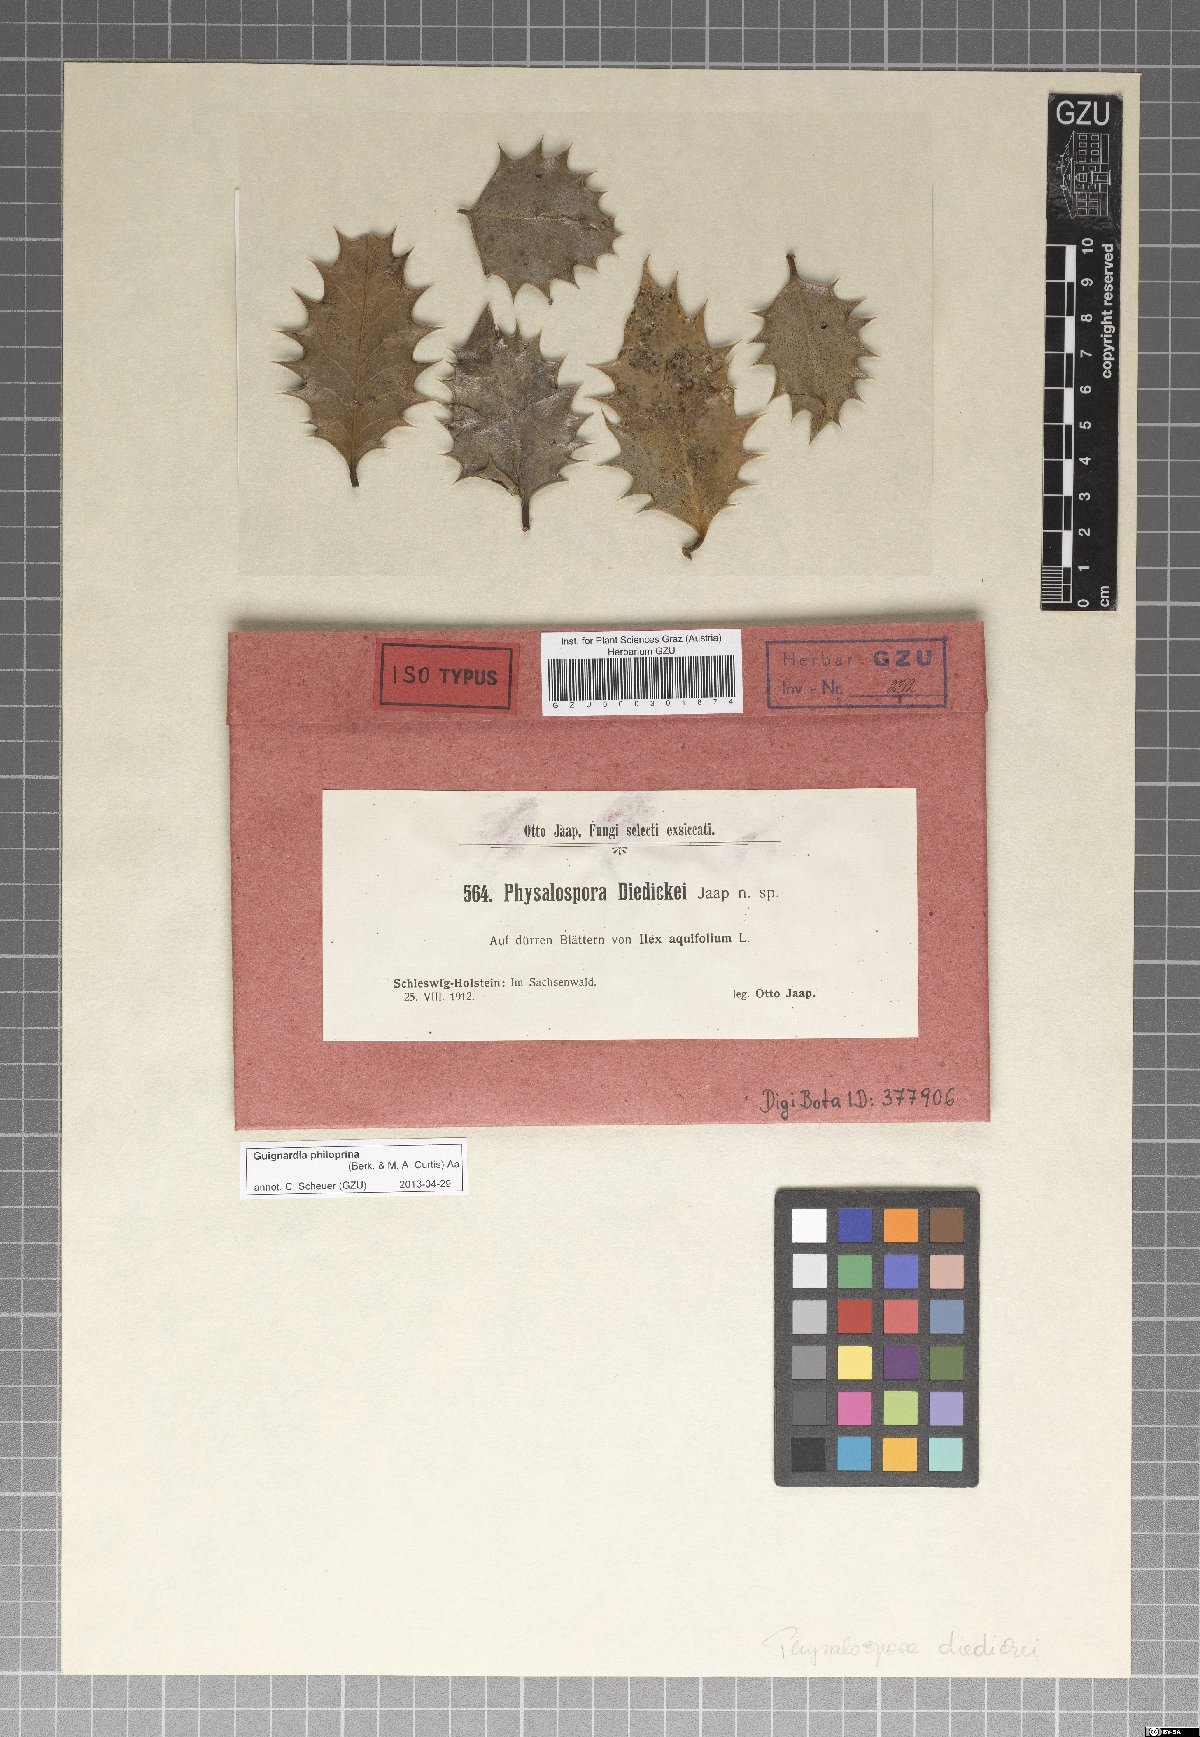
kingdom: Fungi
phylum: Ascomycota
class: Dothideomycetes
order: Botryosphaeriales
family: Phyllostictaceae
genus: Phyllosticta
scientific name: Phyllosticta philoprina
